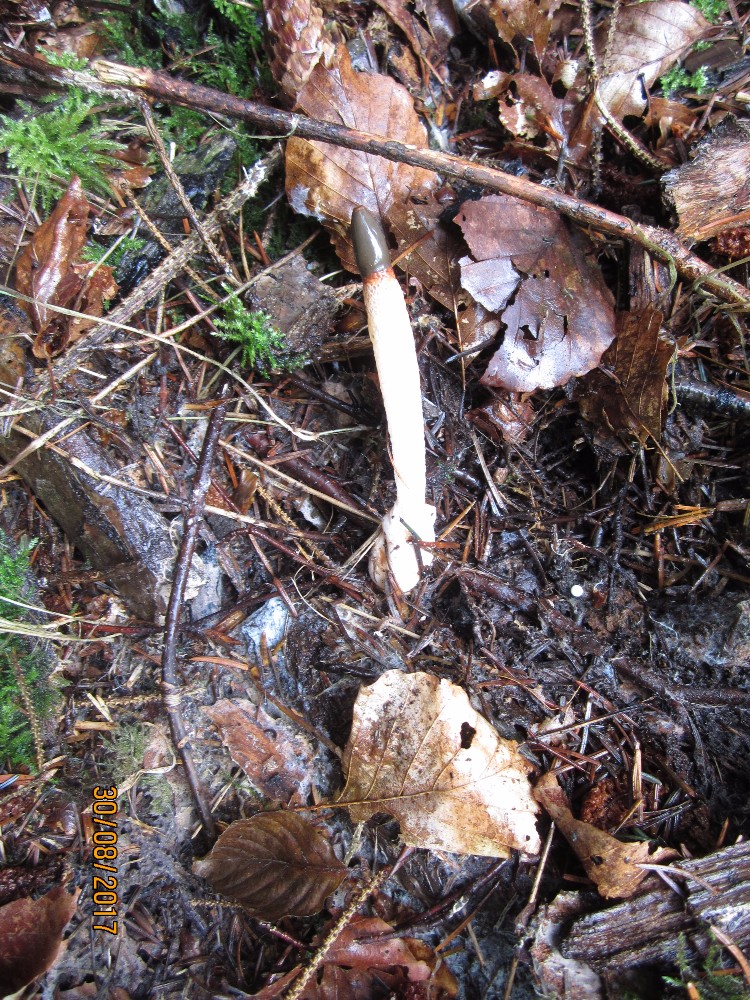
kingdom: Fungi
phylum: Basidiomycota
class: Agaricomycetes
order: Phallales
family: Phallaceae
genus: Mutinus
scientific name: Mutinus caninus
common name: hunde-stinksvamp
